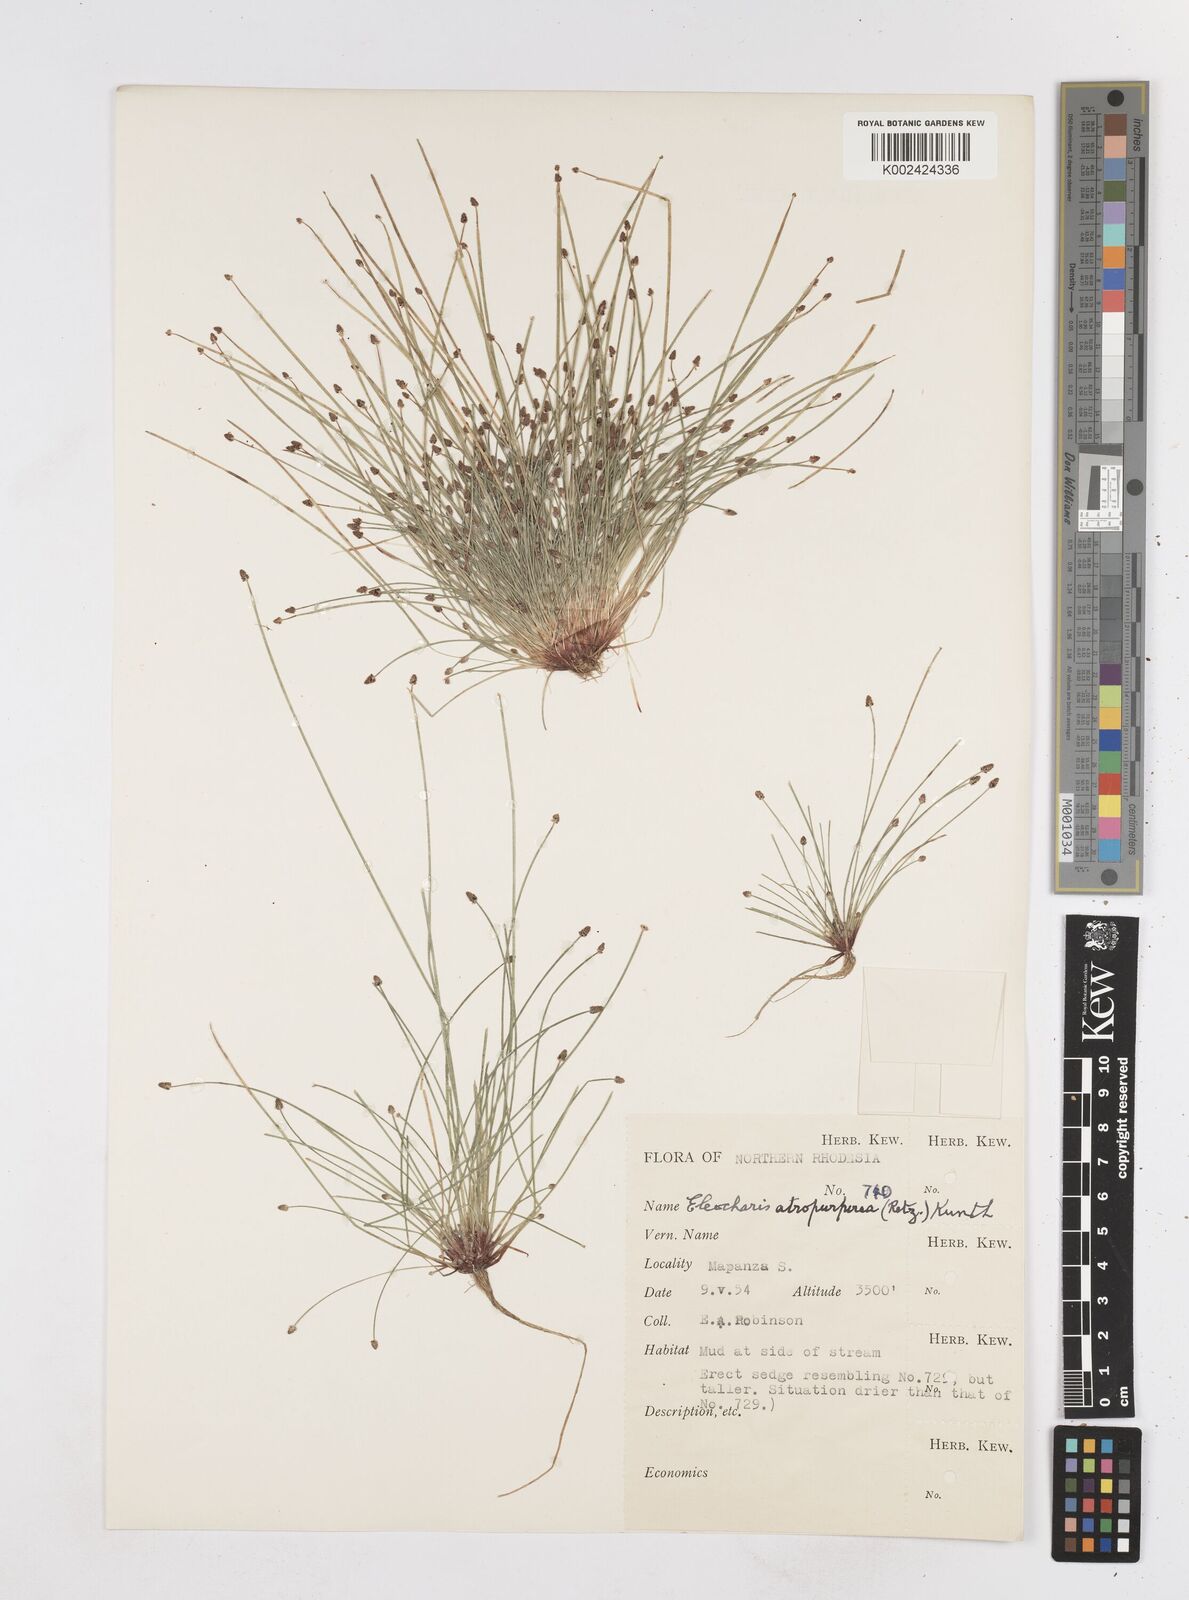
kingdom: Plantae
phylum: Tracheophyta
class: Liliopsida
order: Poales
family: Cyperaceae
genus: Eleocharis
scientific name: Eleocharis atropurpurea
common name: Purple spikerush
